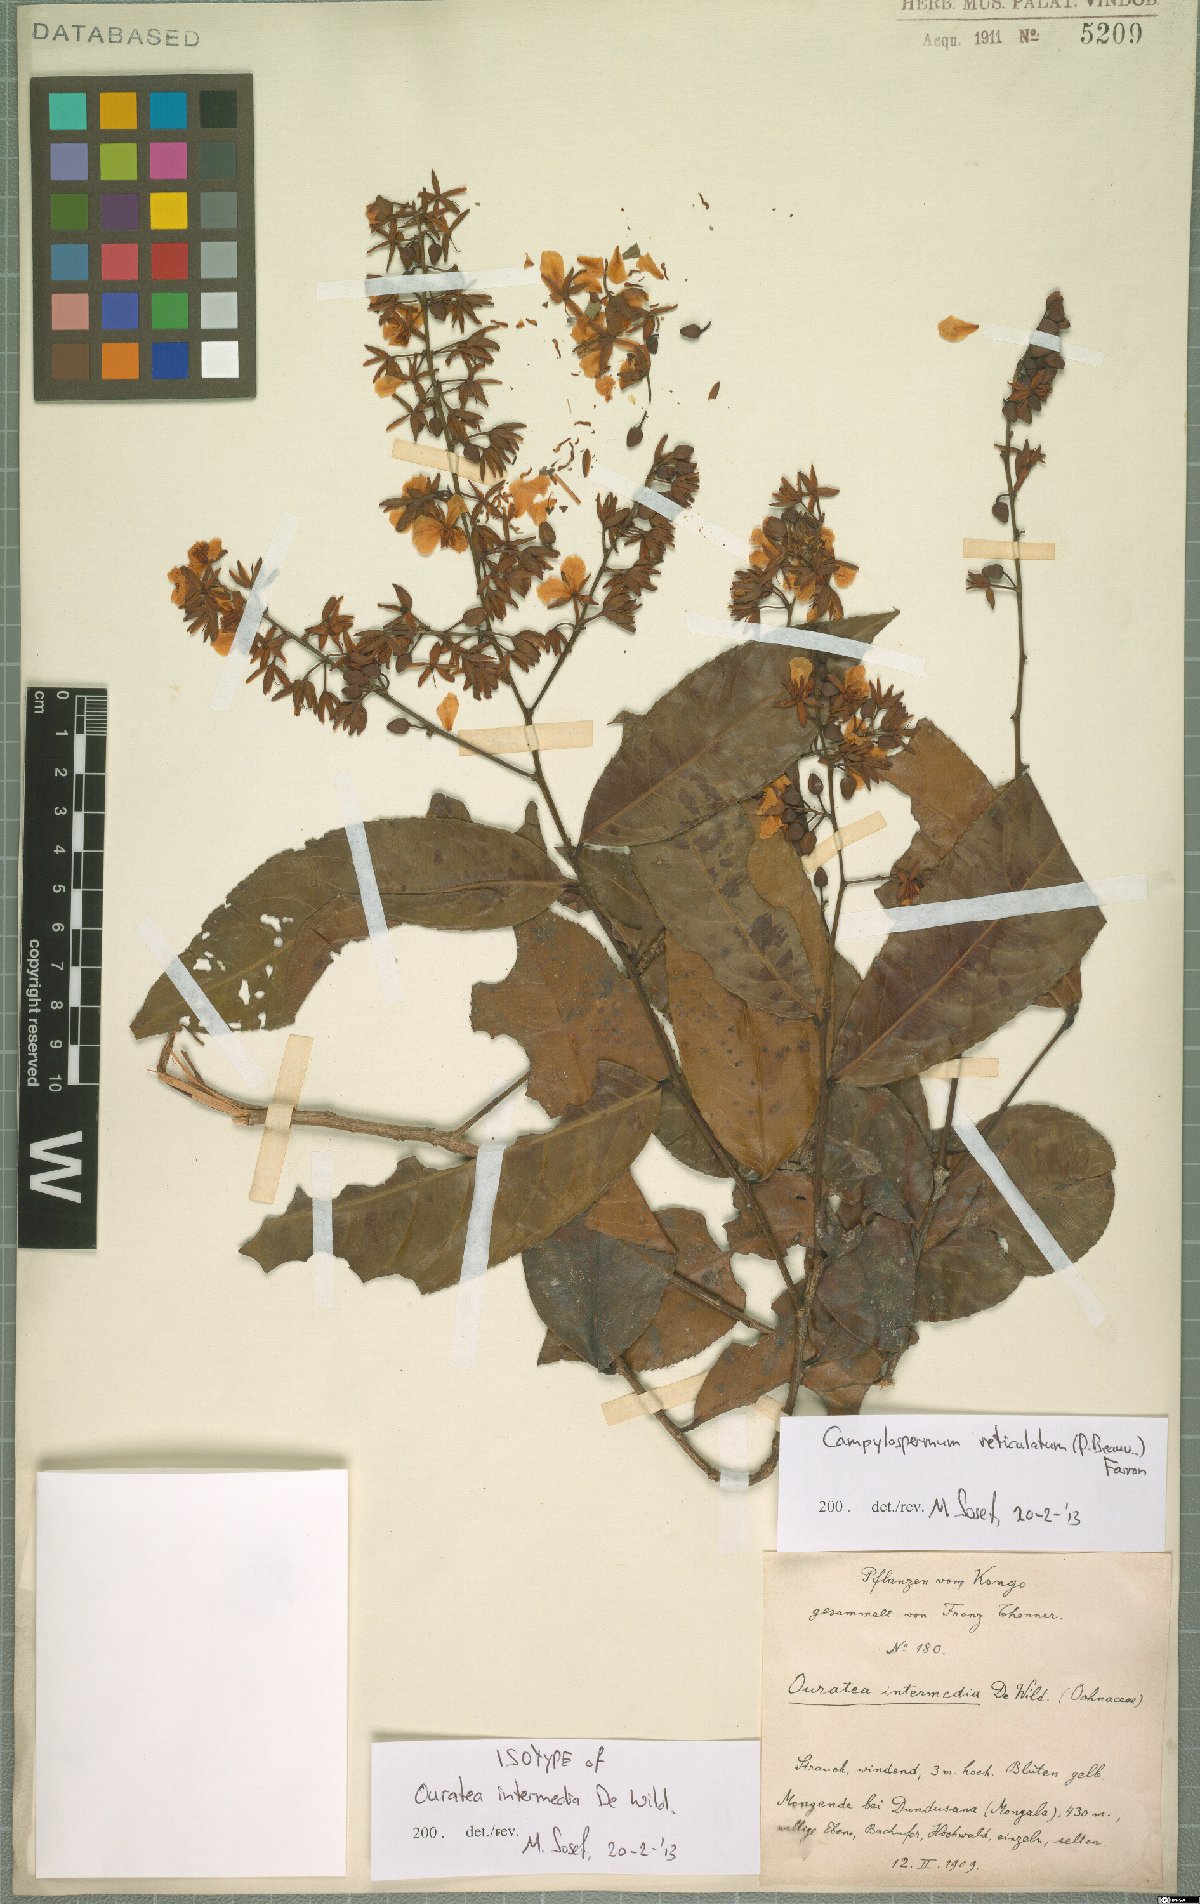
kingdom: Plantae
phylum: Tracheophyta
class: Magnoliopsida
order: Malpighiales
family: Ochnaceae
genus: Campylospermum
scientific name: Campylospermum reticulatum
